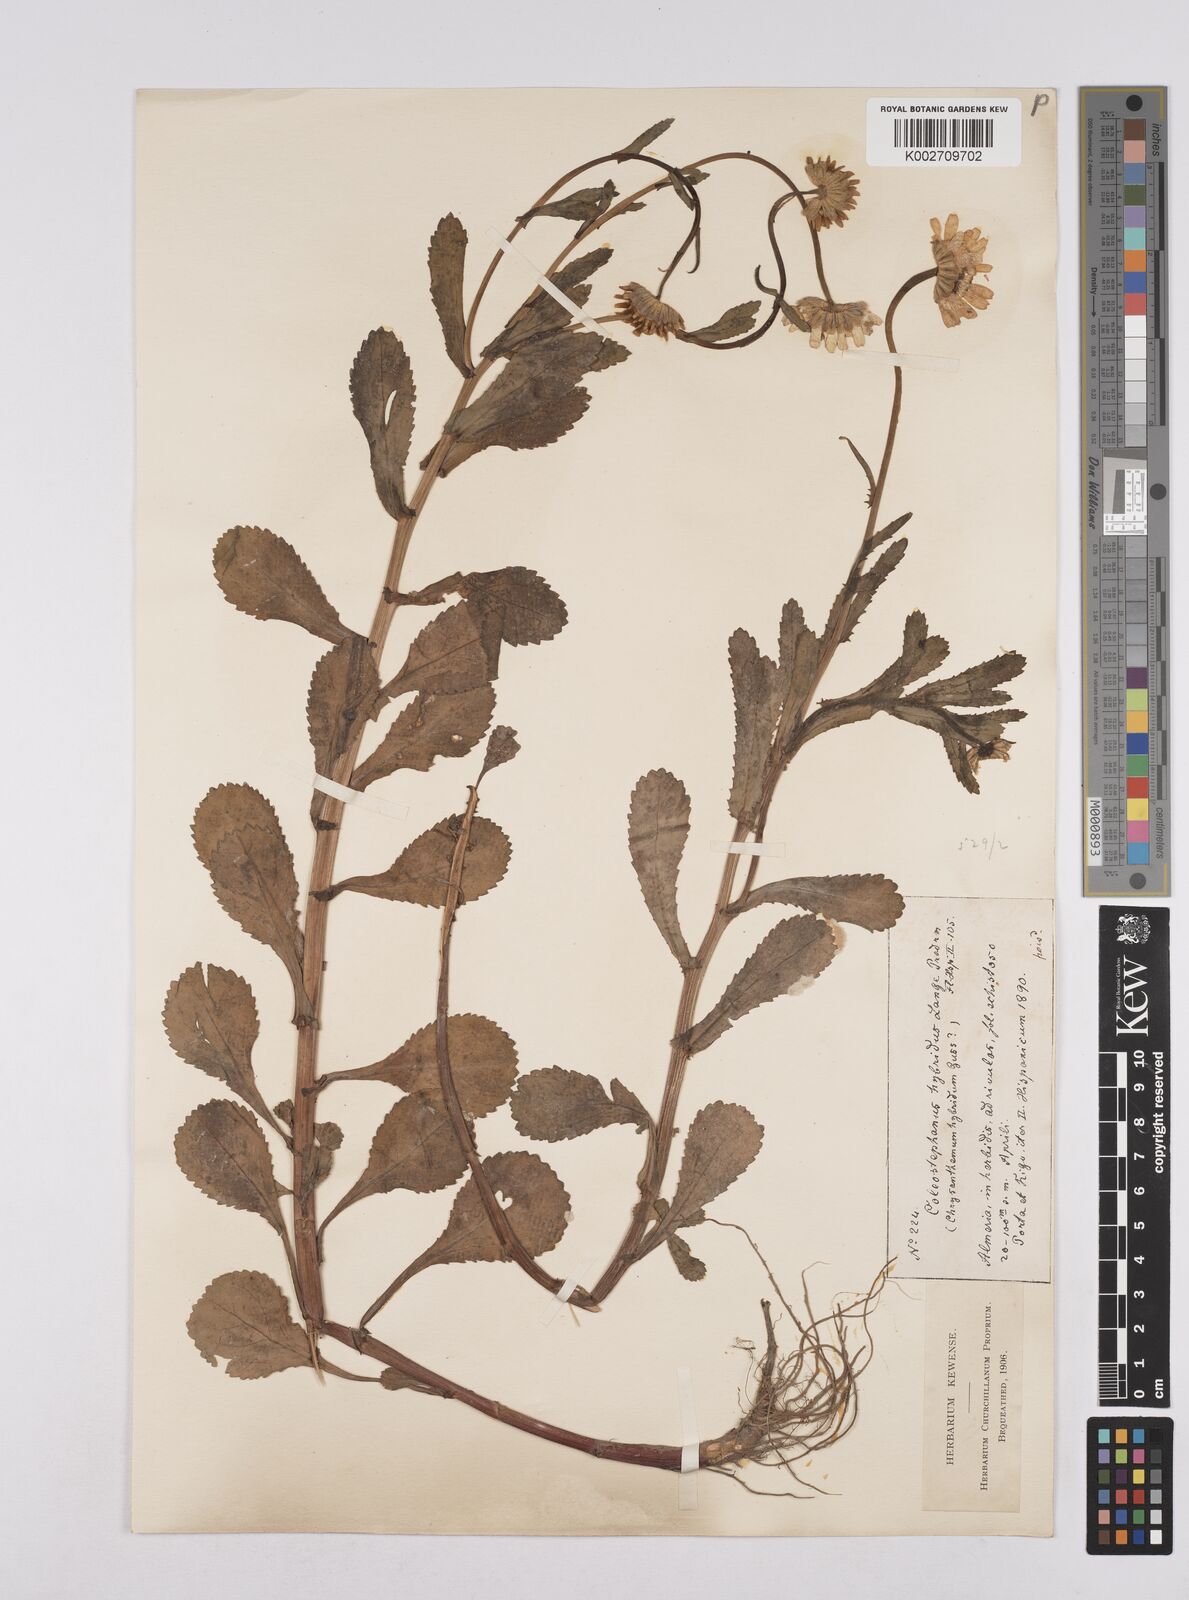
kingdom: Plantae
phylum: Tracheophyta
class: Magnoliopsida
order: Asterales
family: Asteraceae
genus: Coleostephus
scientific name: Coleostephus paludosus
